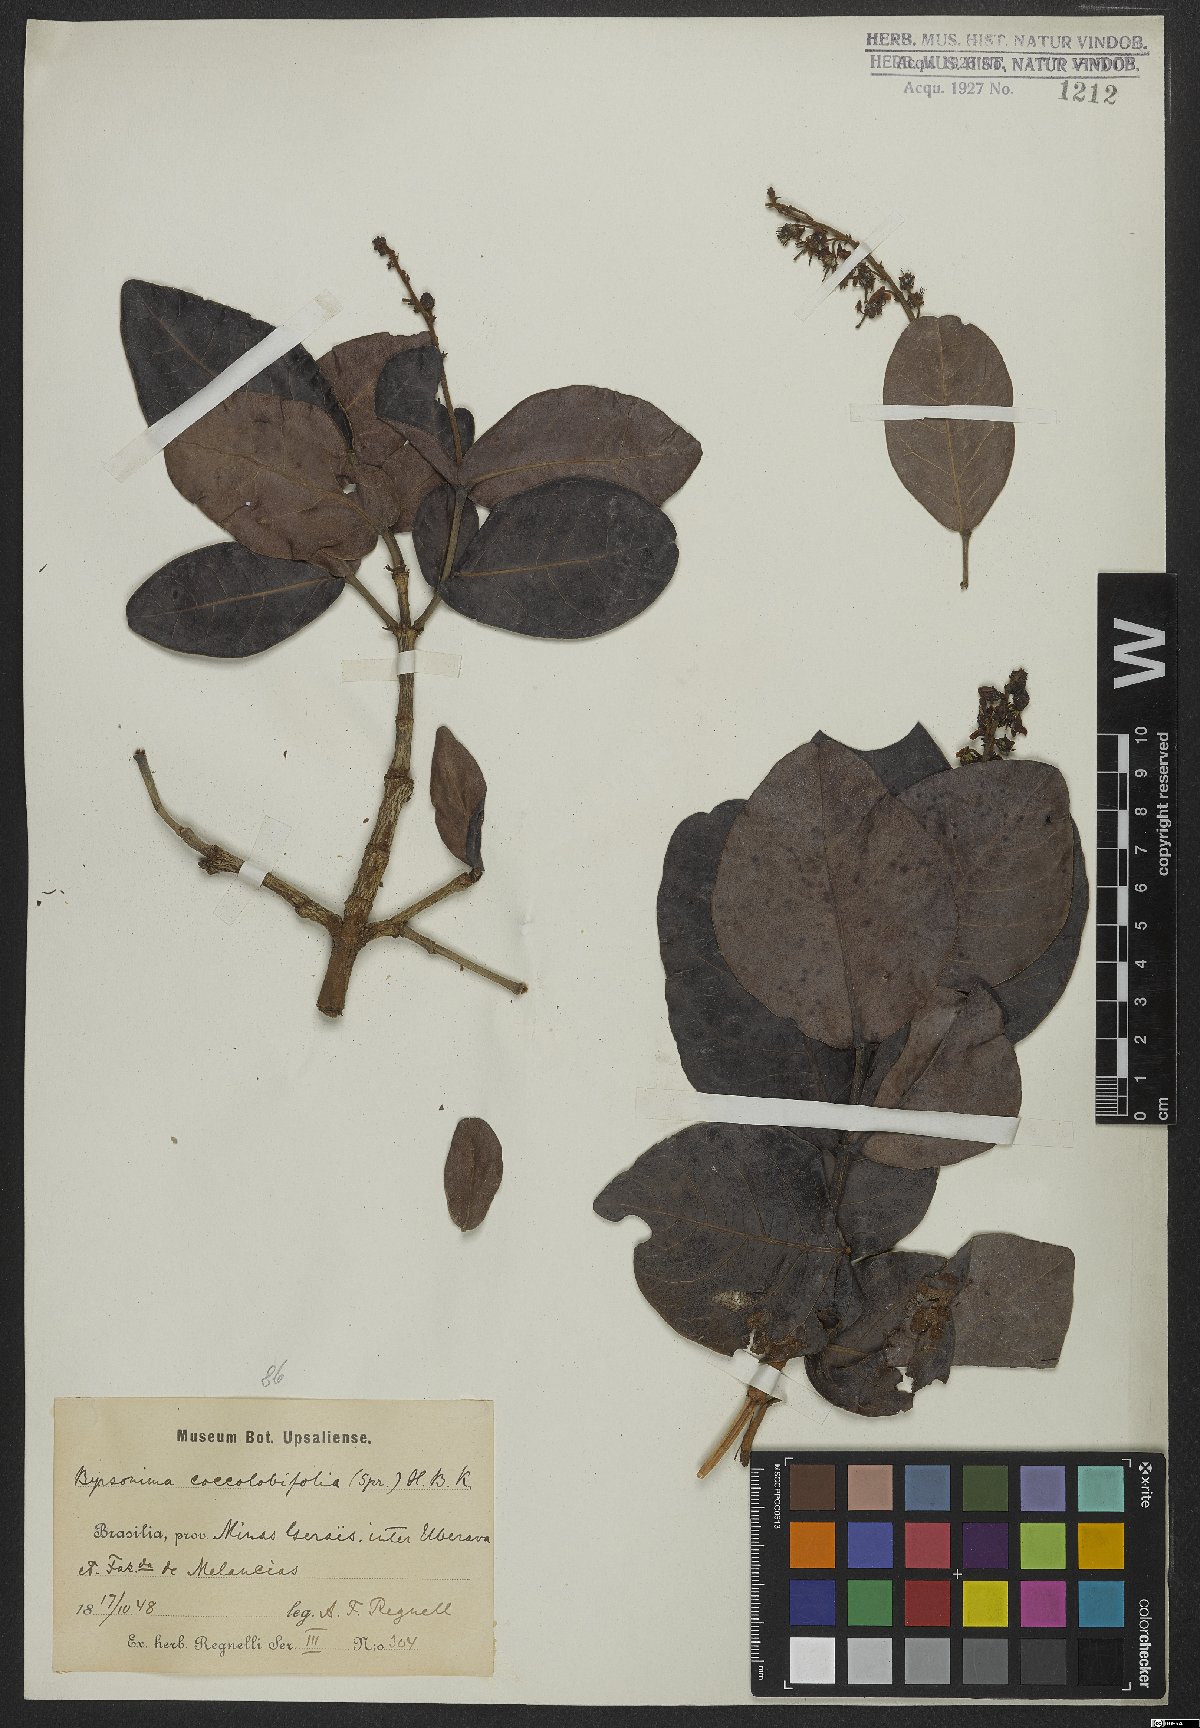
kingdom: Plantae
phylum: Tracheophyta
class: Magnoliopsida
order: Malpighiales
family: Malpighiaceae
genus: Byrsonima
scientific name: Byrsonima coccolobifolia
